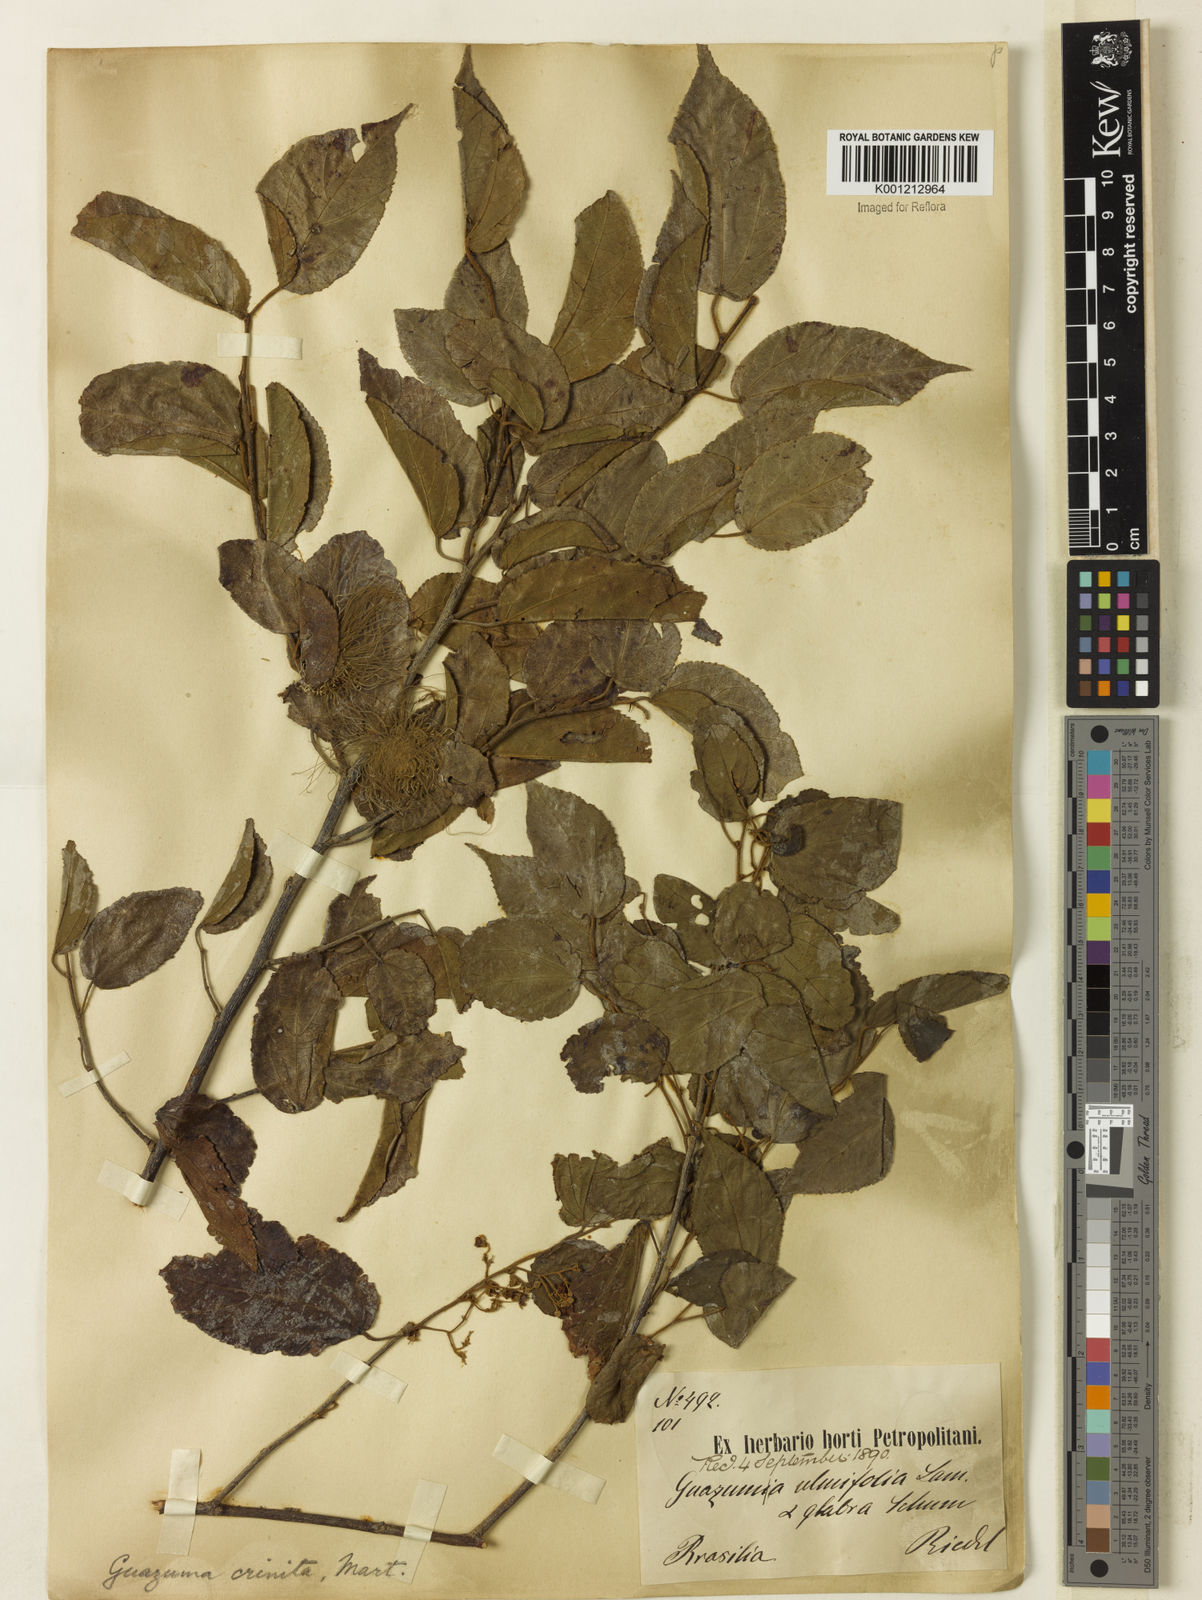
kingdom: Plantae
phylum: Tracheophyta
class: Magnoliopsida
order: Malvales
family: Malvaceae
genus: Guazuma
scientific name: Guazuma crinita
